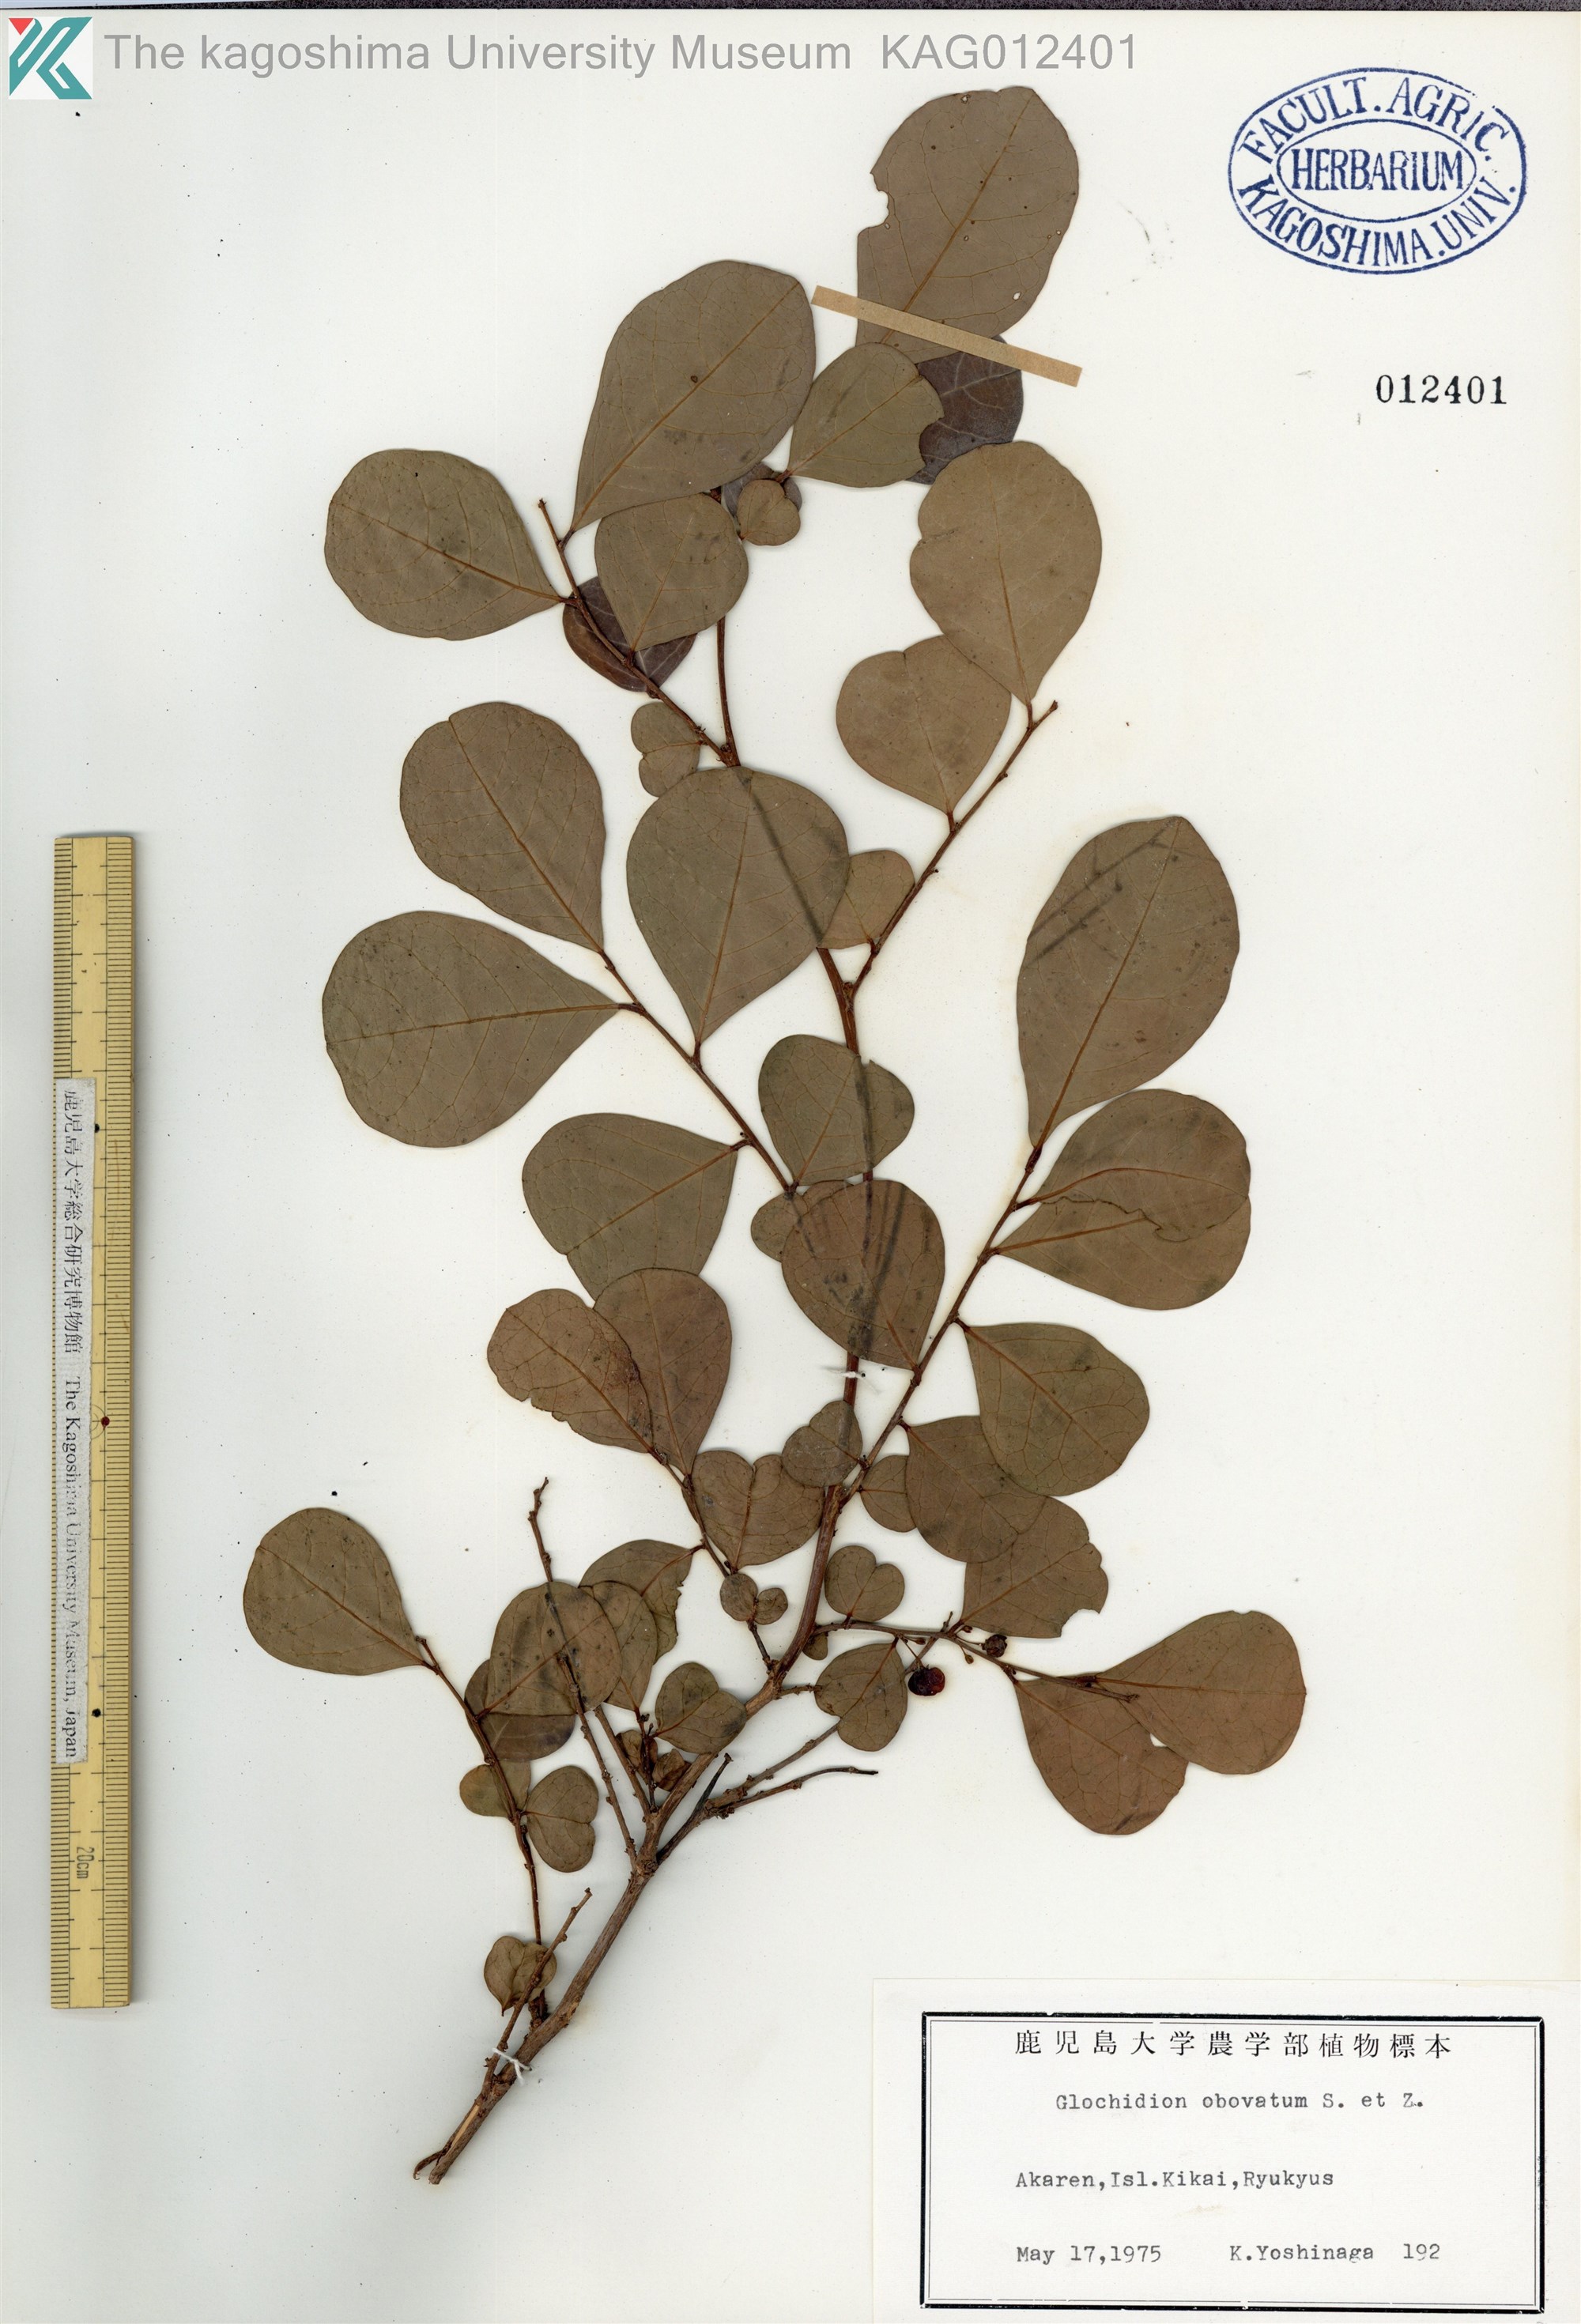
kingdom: Plantae
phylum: Tracheophyta
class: Magnoliopsida
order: Malpighiales
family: Phyllanthaceae
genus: Glochidion
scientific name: Glochidion obovatum
